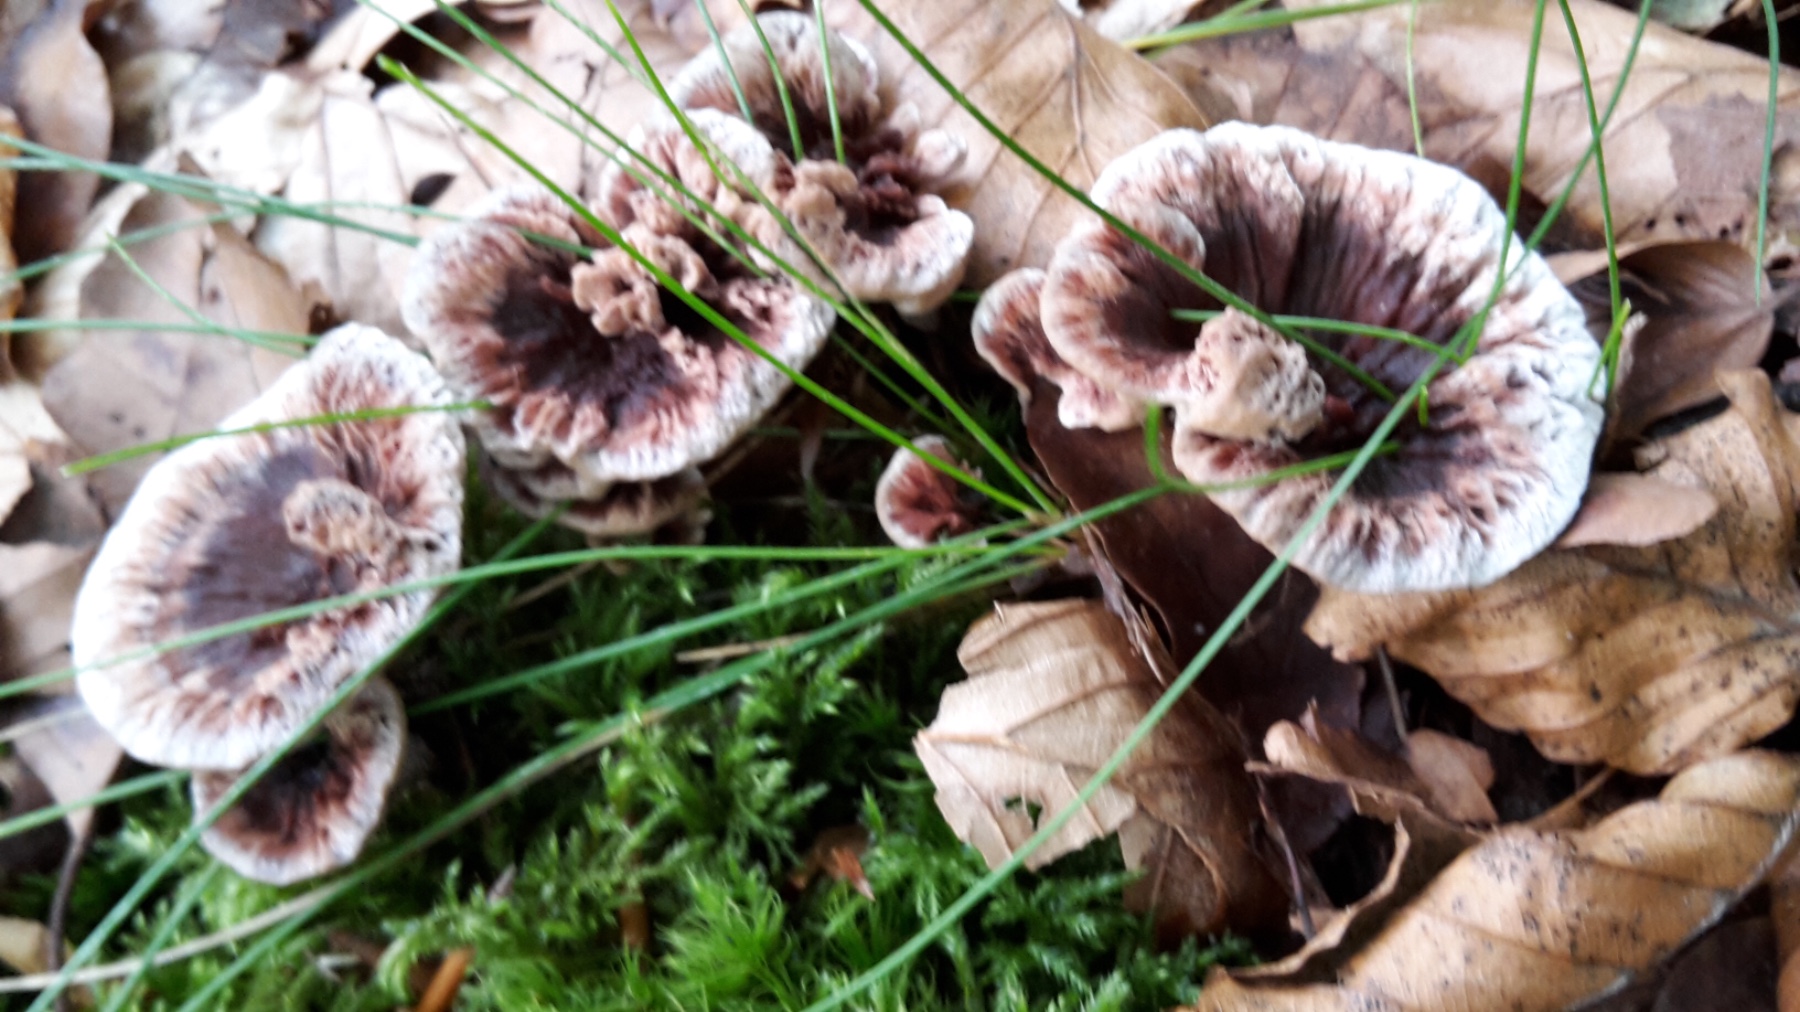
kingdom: Fungi
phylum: Basidiomycota
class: Agaricomycetes
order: Thelephorales
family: Bankeraceae
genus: Hydnellum
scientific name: Hydnellum concrescens
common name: bæltet korkpigsvamp
